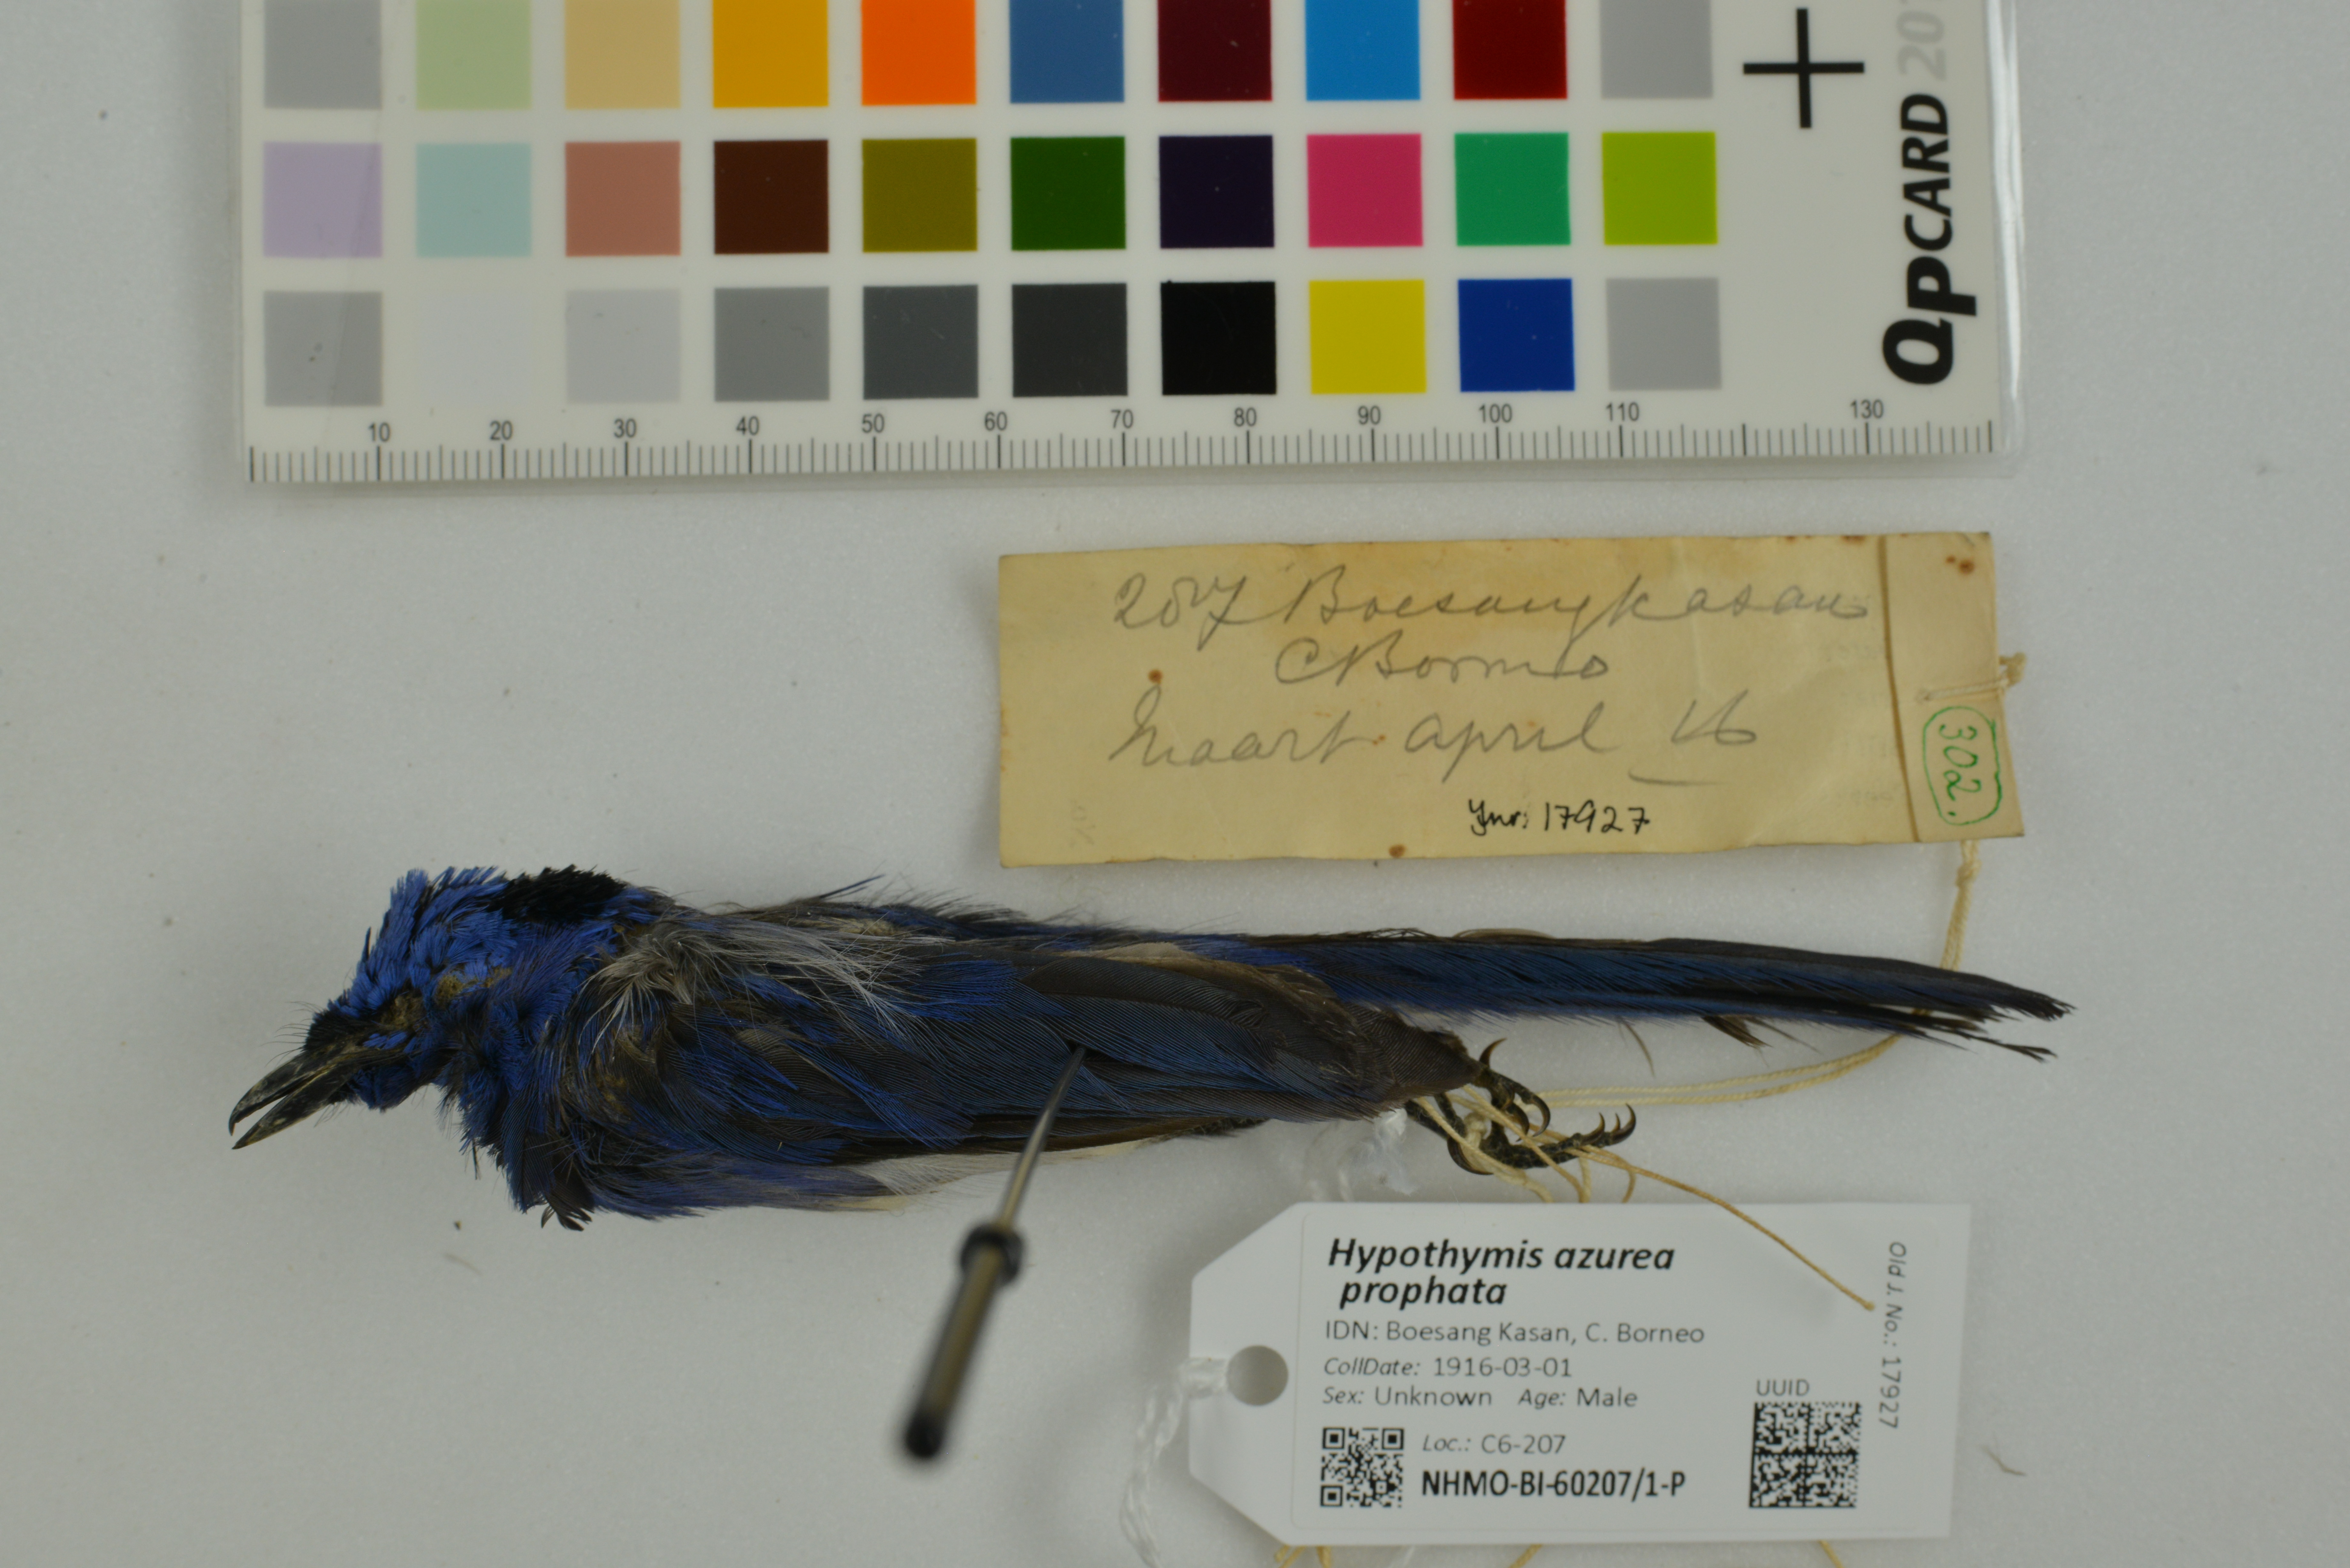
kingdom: Animalia
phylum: Chordata
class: Aves
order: Passeriformes
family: Monarchidae
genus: Hypothymis
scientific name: Hypothymis azurea
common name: Black-naped monarch
